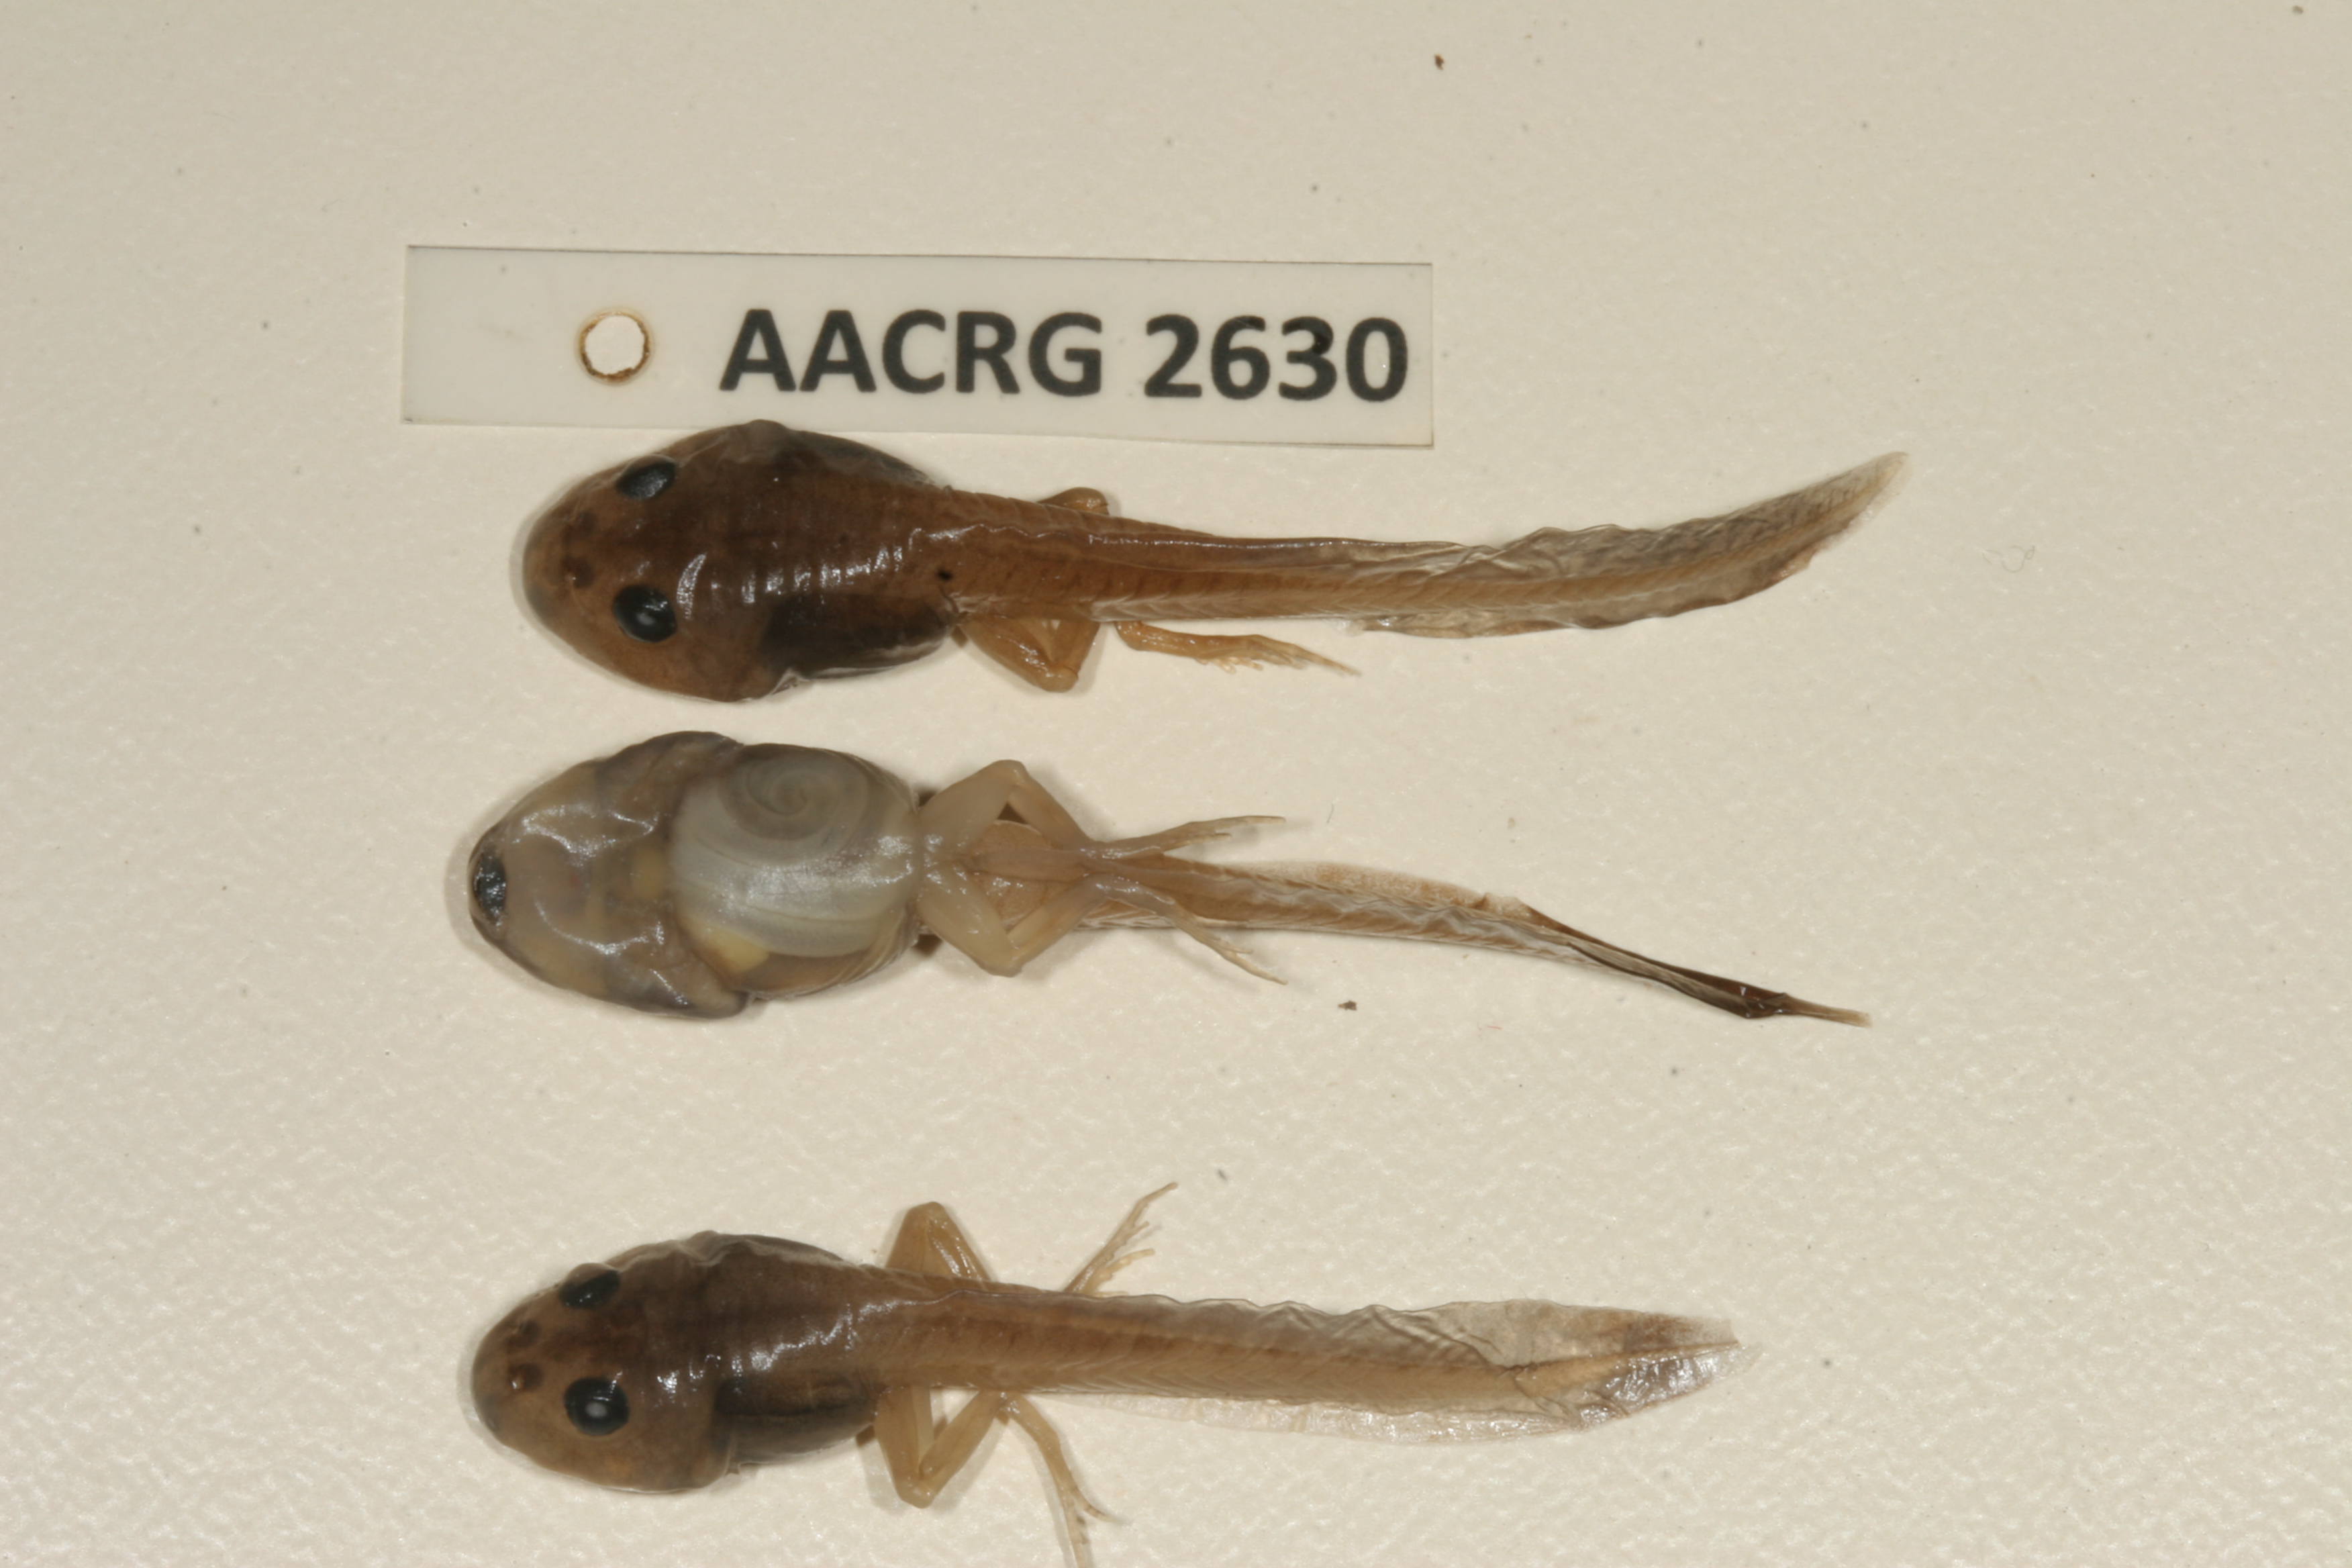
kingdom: Animalia
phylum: Chordata
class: Amphibia
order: Anura
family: Pyxicephalidae
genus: Cacosternum
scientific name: Cacosternum nanum
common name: Bronze dainty frog
